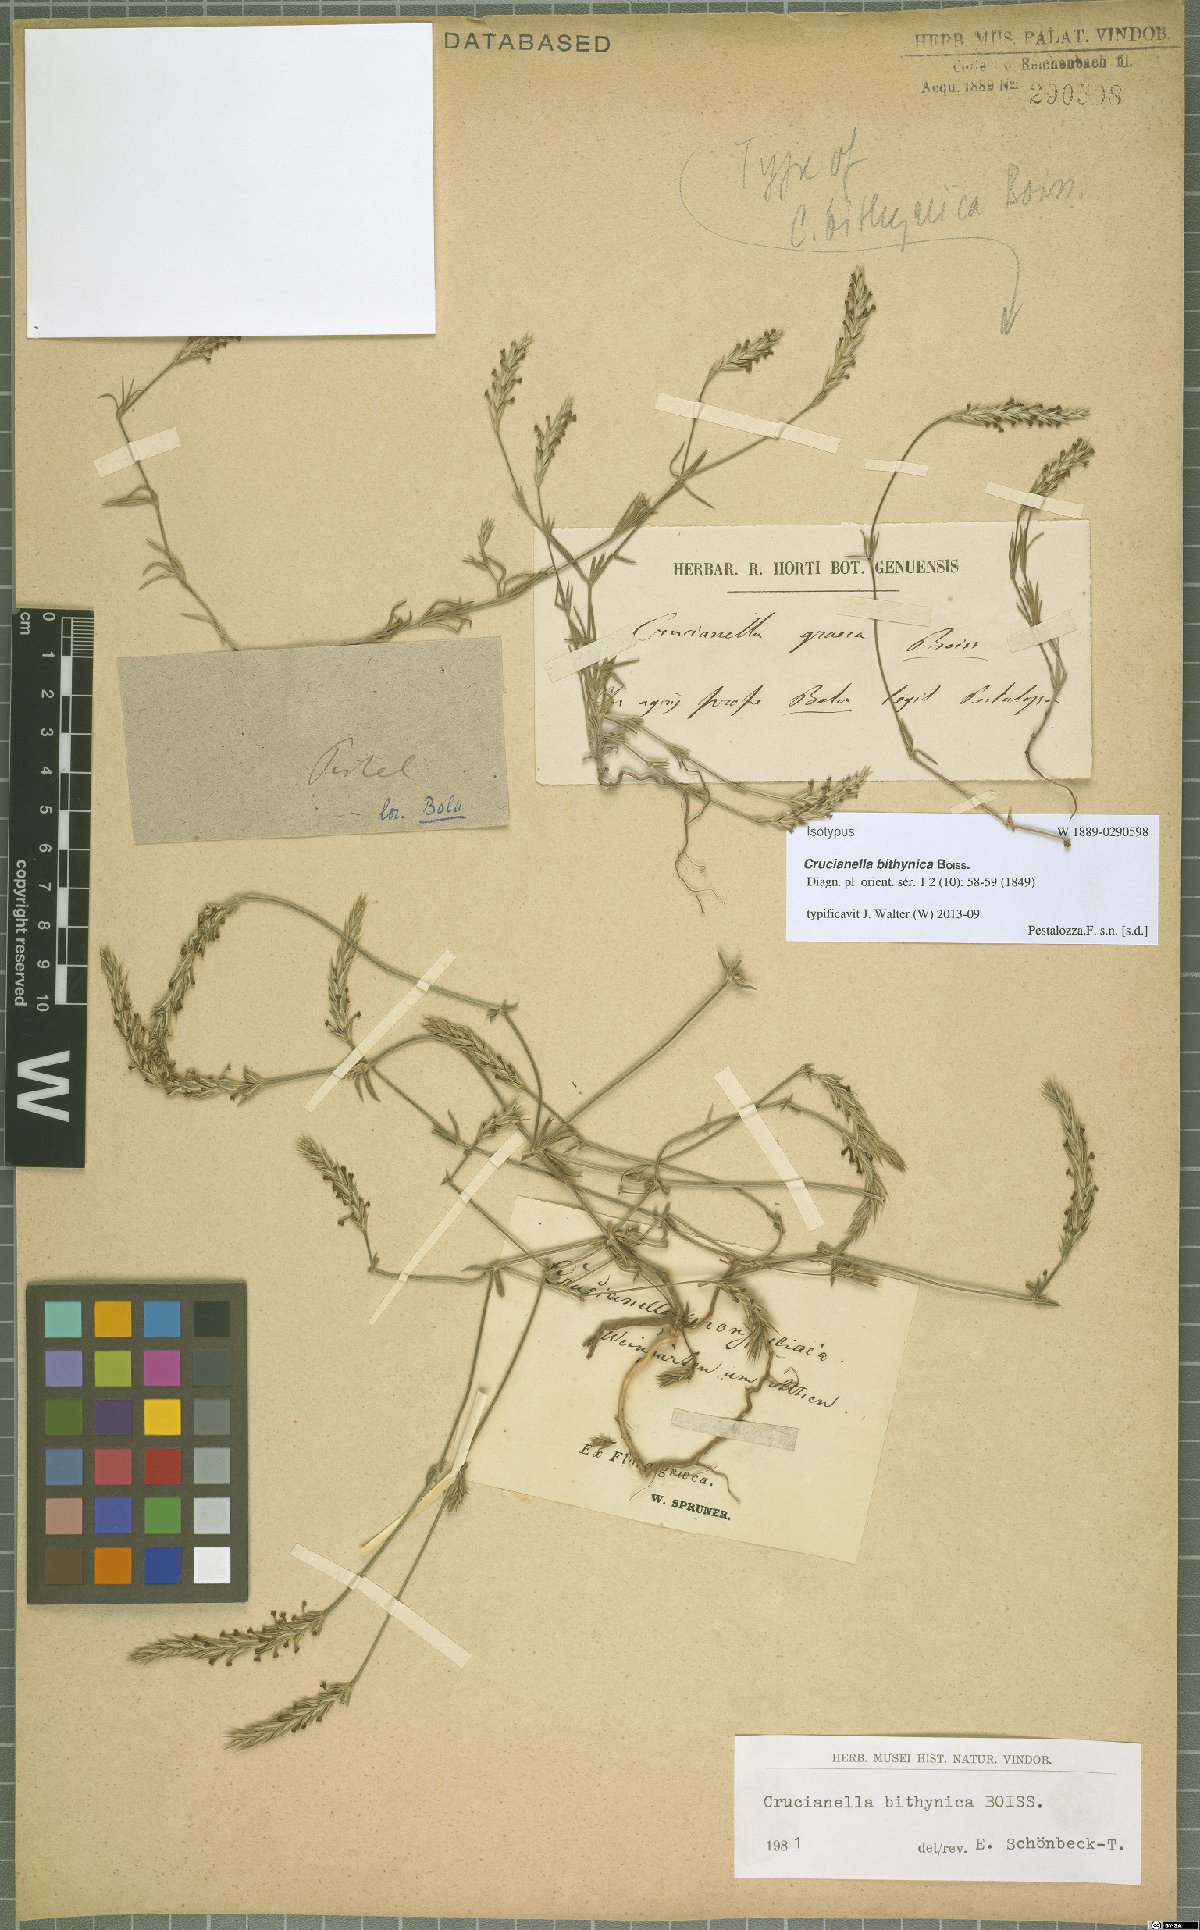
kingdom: Plantae
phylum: Tracheophyta
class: Magnoliopsida
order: Gentianales
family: Rubiaceae
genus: Crucianella
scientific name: Crucianella bithynica
